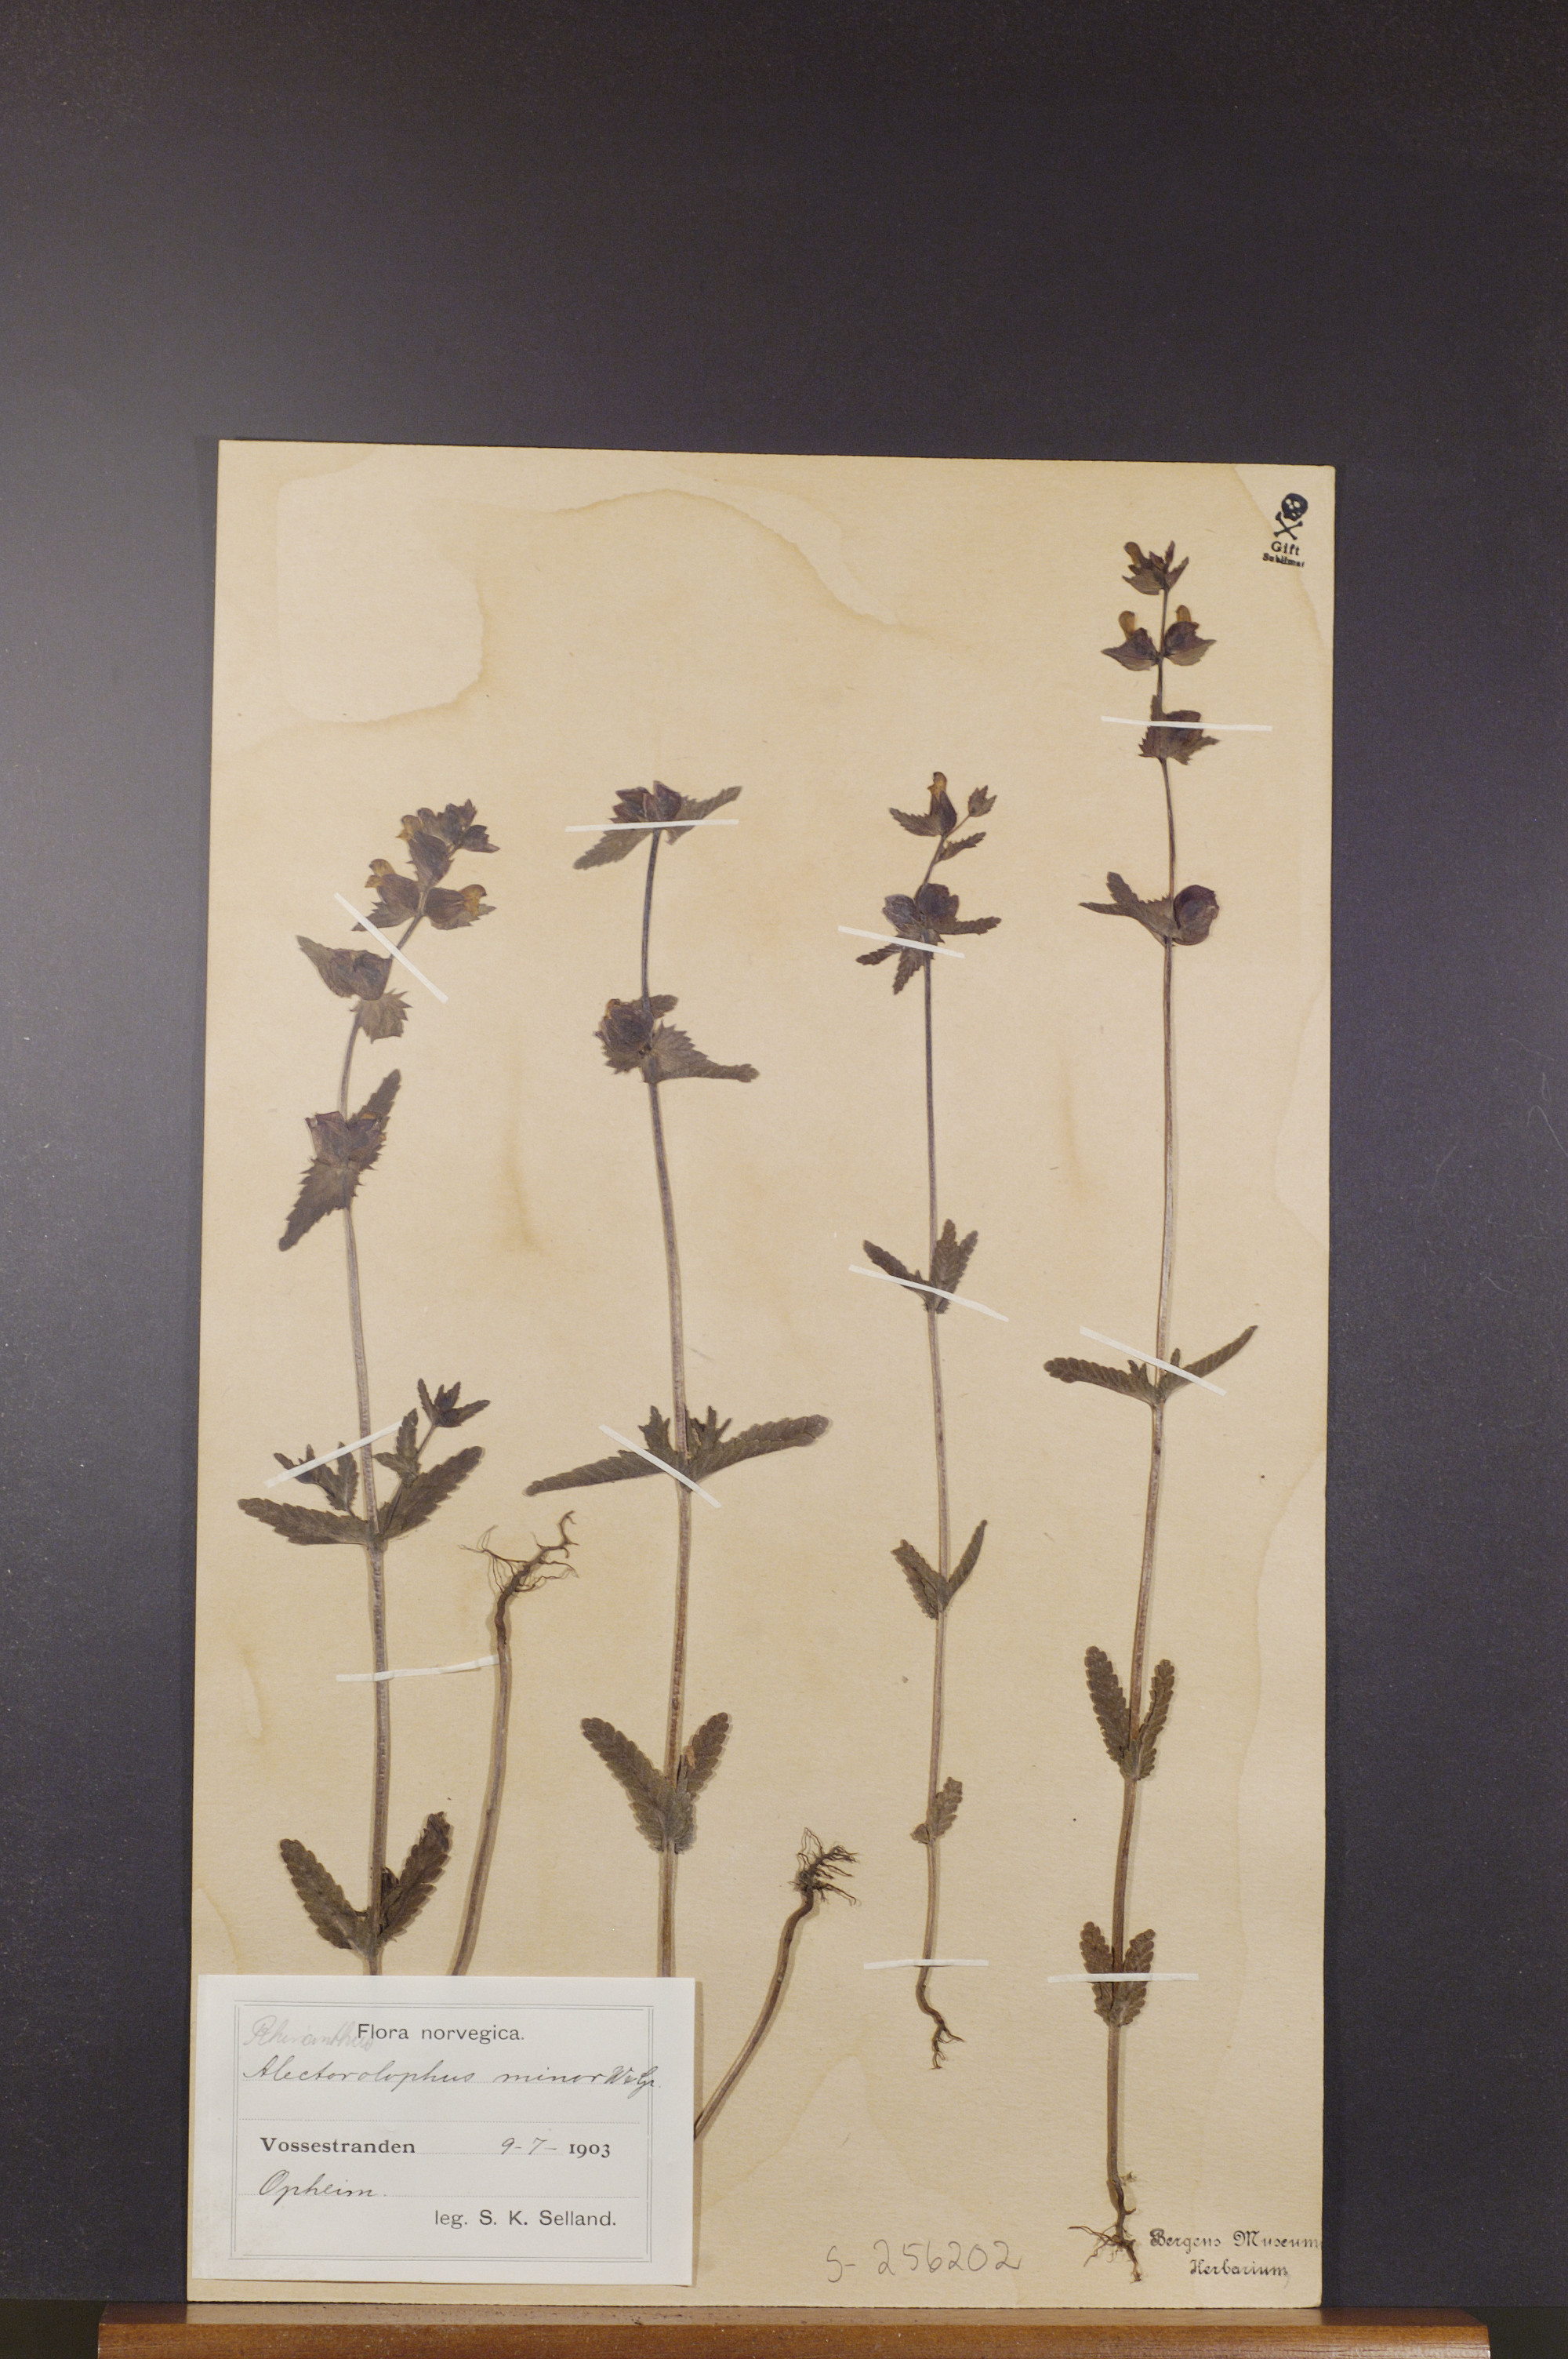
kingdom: Plantae
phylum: Tracheophyta
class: Magnoliopsida
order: Lamiales
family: Orobanchaceae
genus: Rhinanthus
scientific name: Rhinanthus minor
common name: Yellow-rattle
